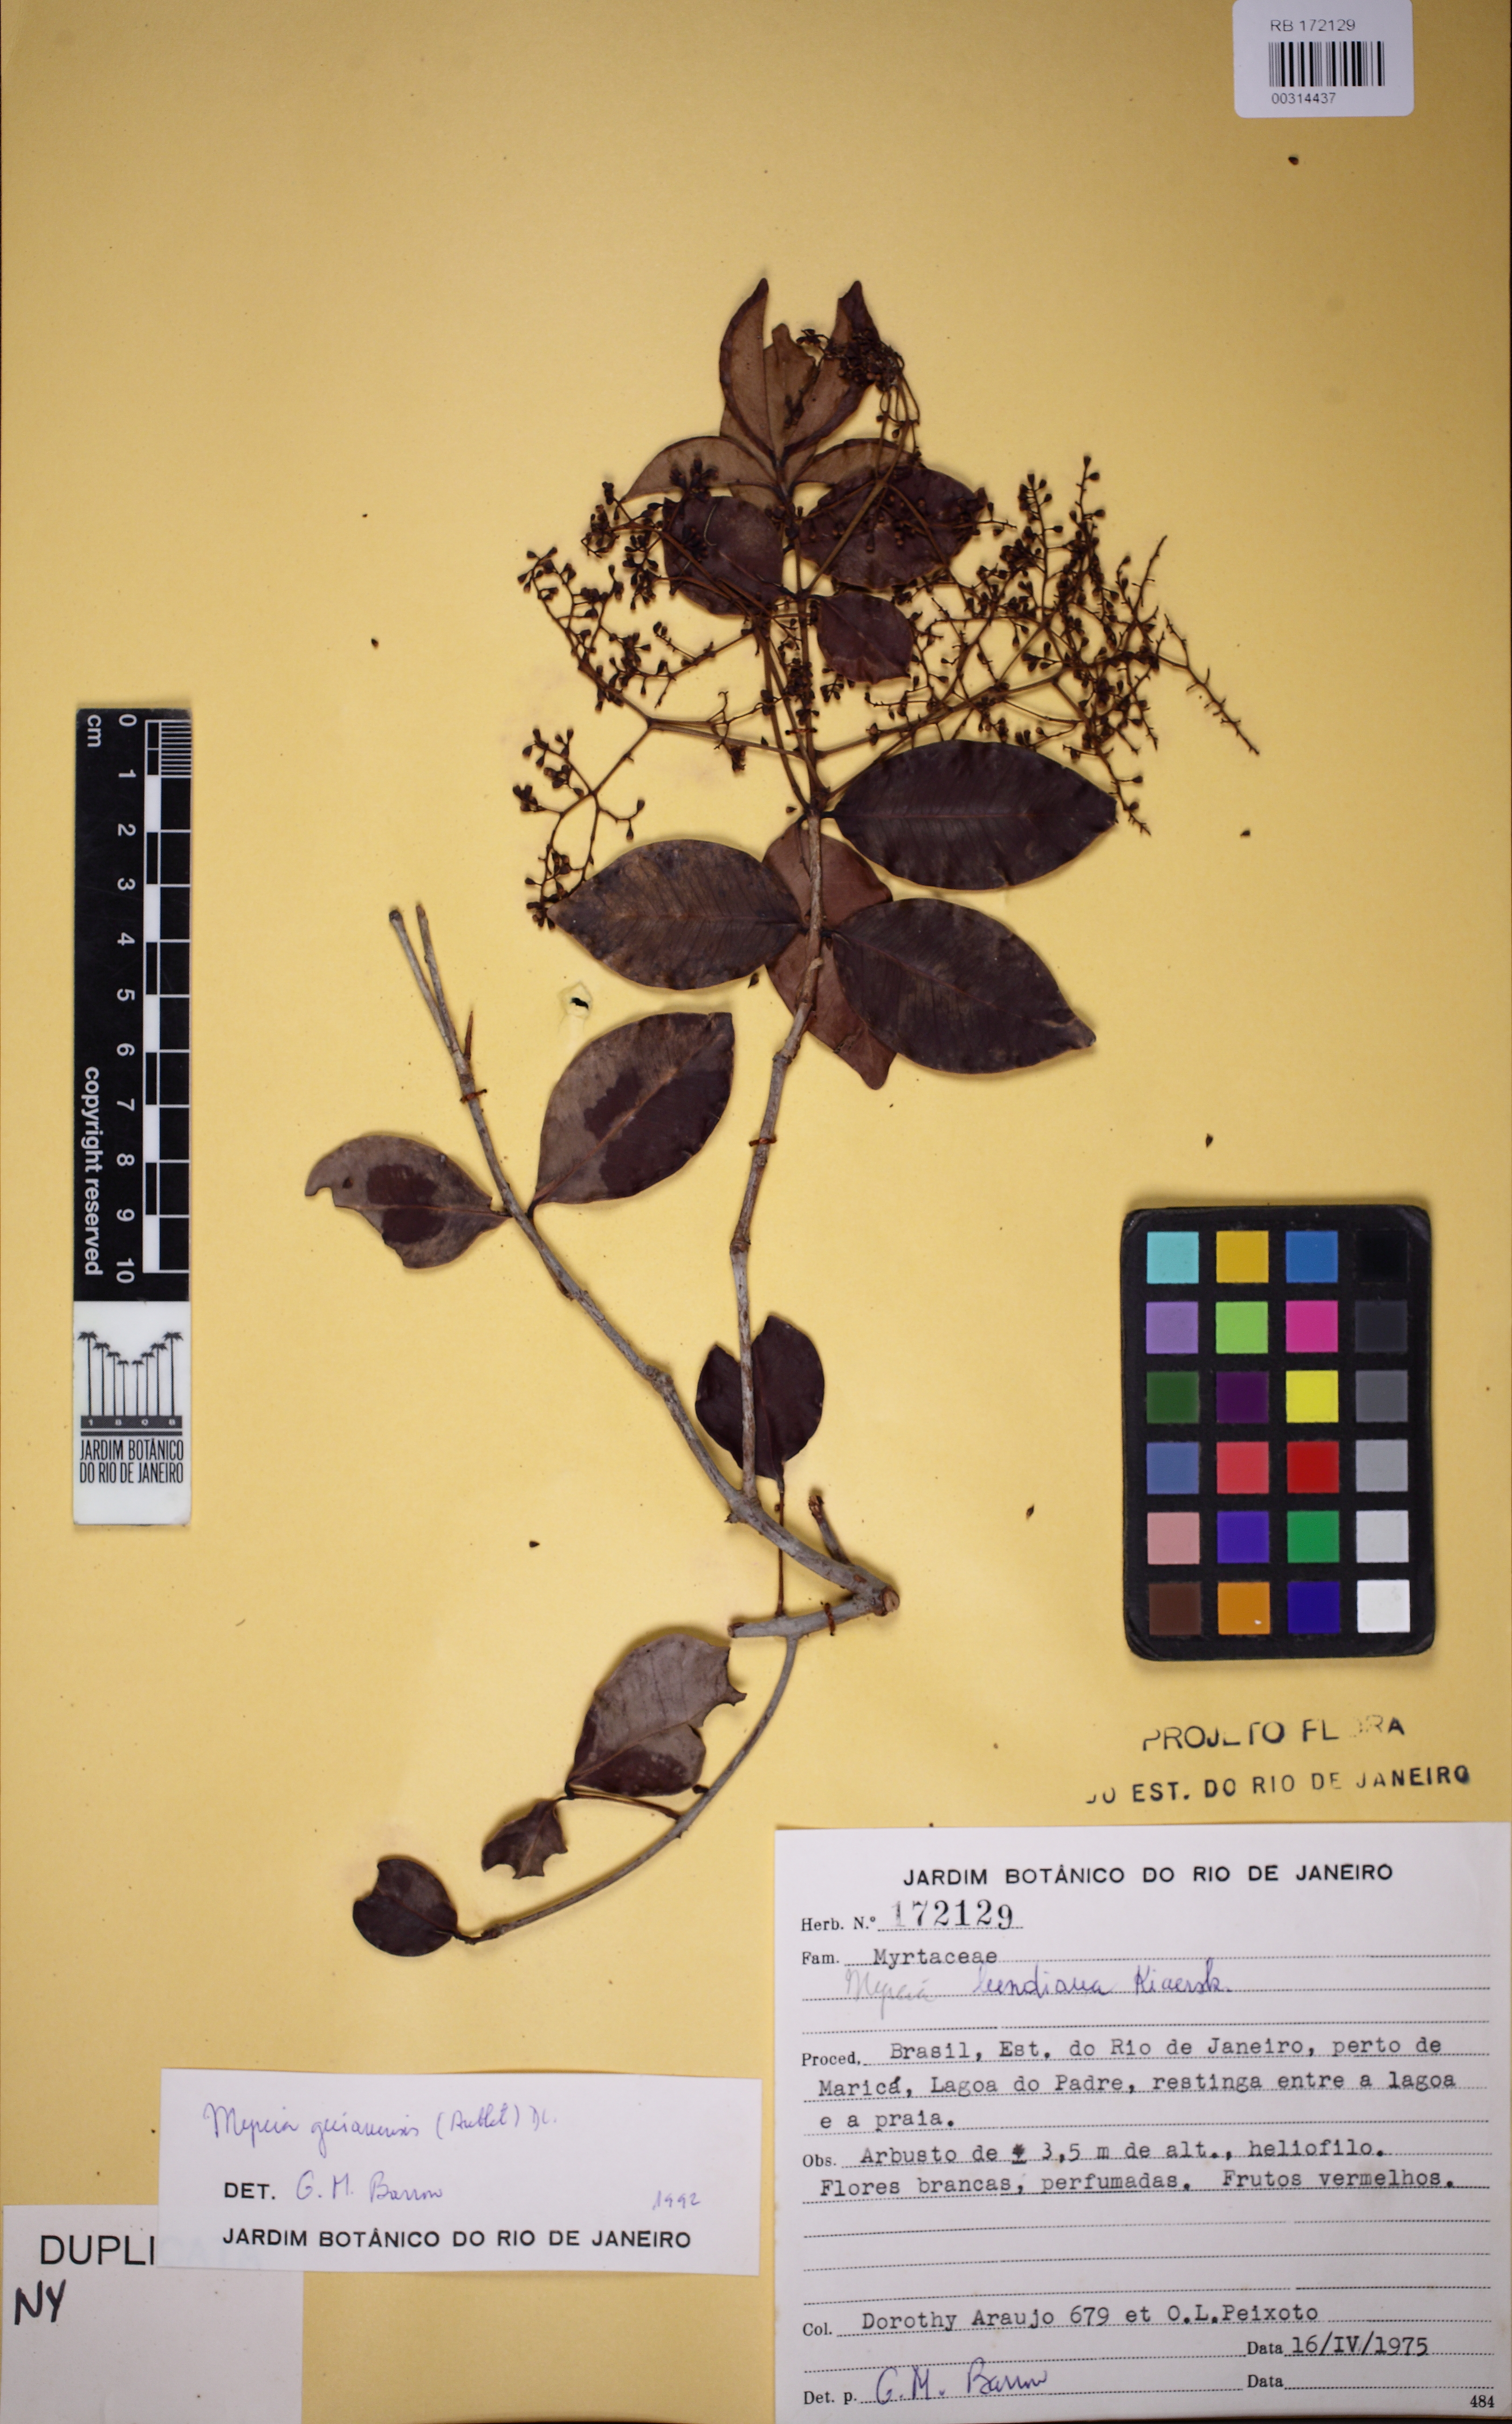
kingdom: Plantae
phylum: Tracheophyta
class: Magnoliopsida
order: Myrtales
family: Myrtaceae
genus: Myrcia
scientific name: Myrcia lundiana
